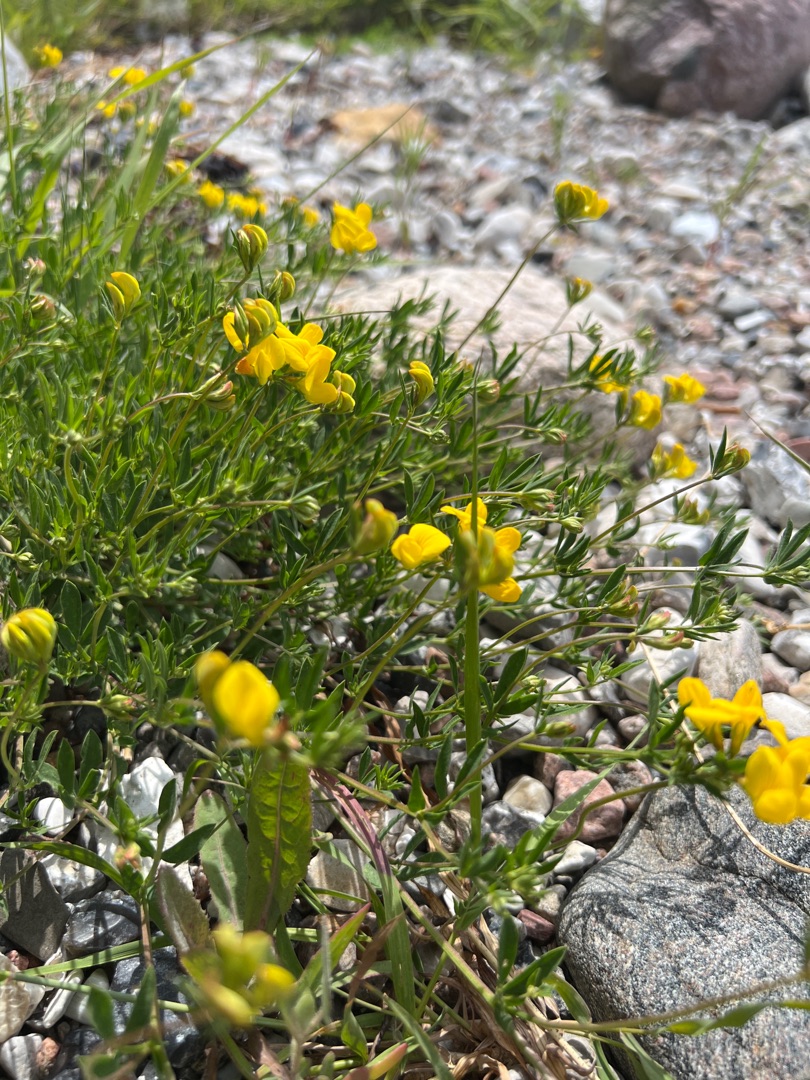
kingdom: Plantae
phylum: Tracheophyta
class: Magnoliopsida
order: Fabales
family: Fabaceae
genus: Lotus
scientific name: Lotus corniculatus
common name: Almindelig kællingetand
